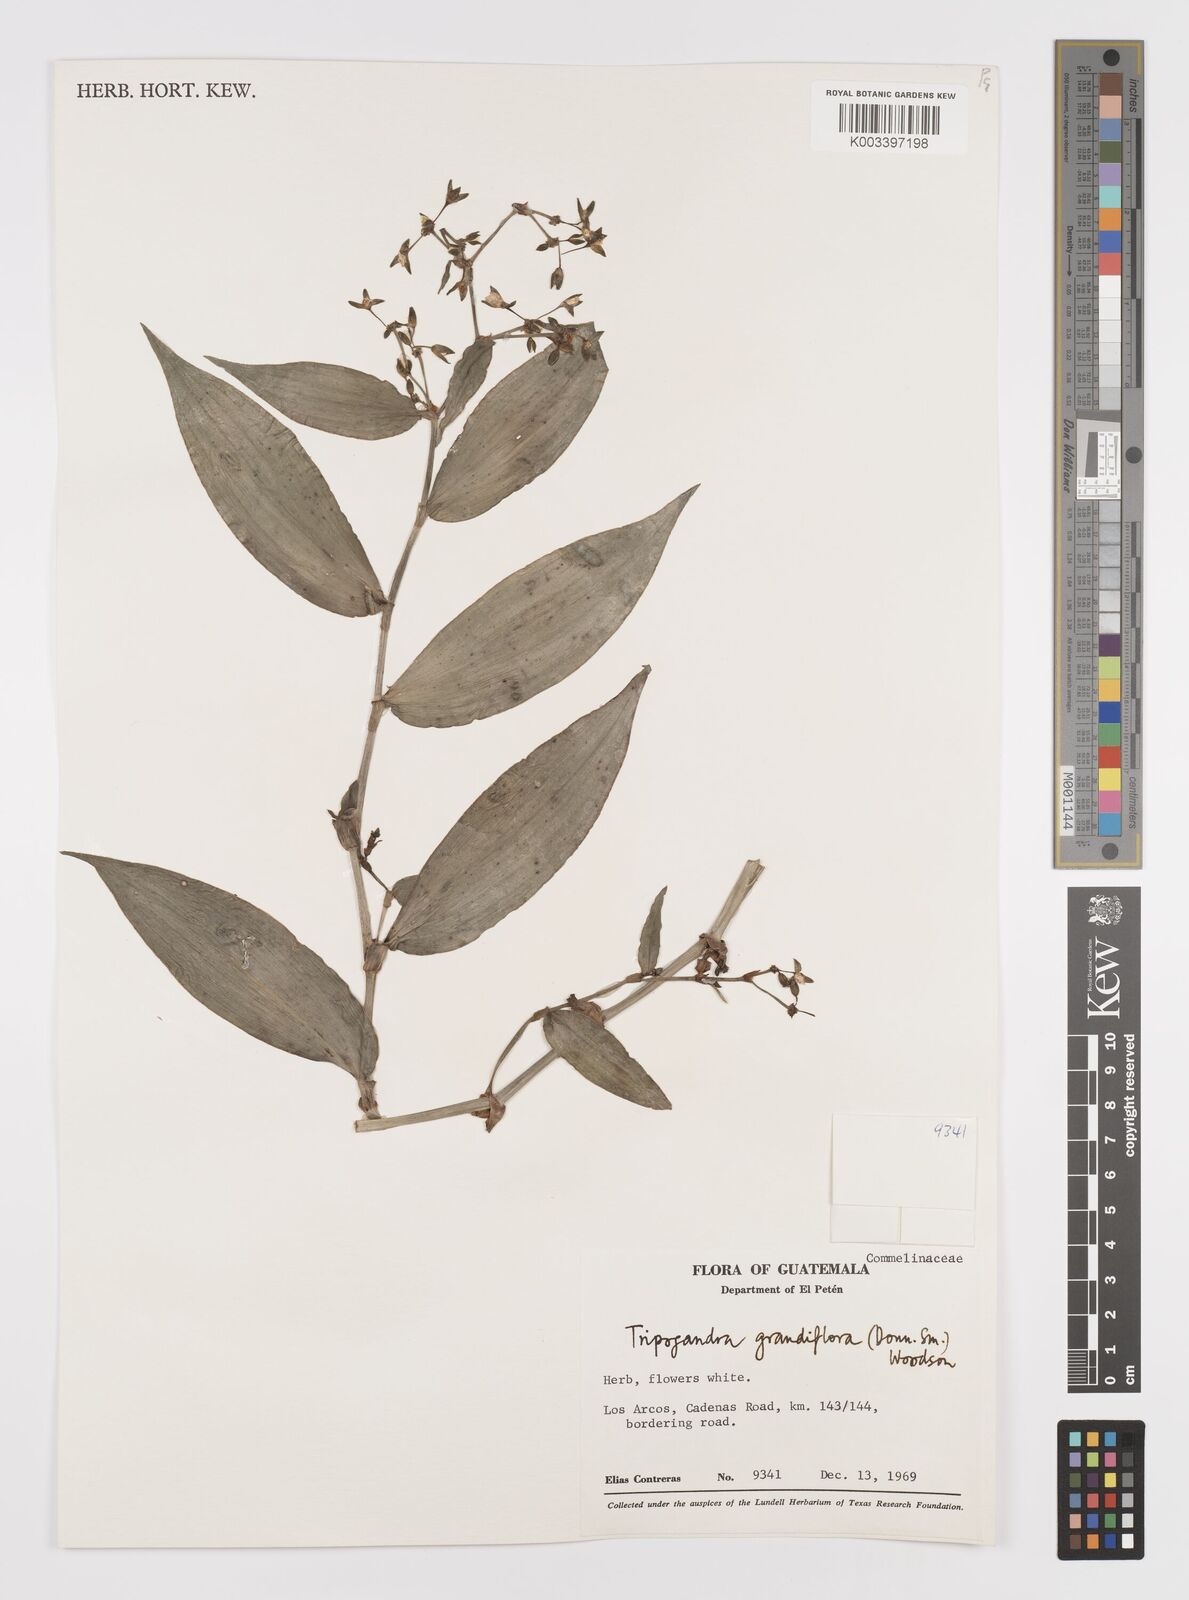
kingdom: Plantae
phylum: Tracheophyta
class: Liliopsida
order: Commelinales
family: Commelinaceae
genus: Callisia
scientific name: Callisia grandiflora
